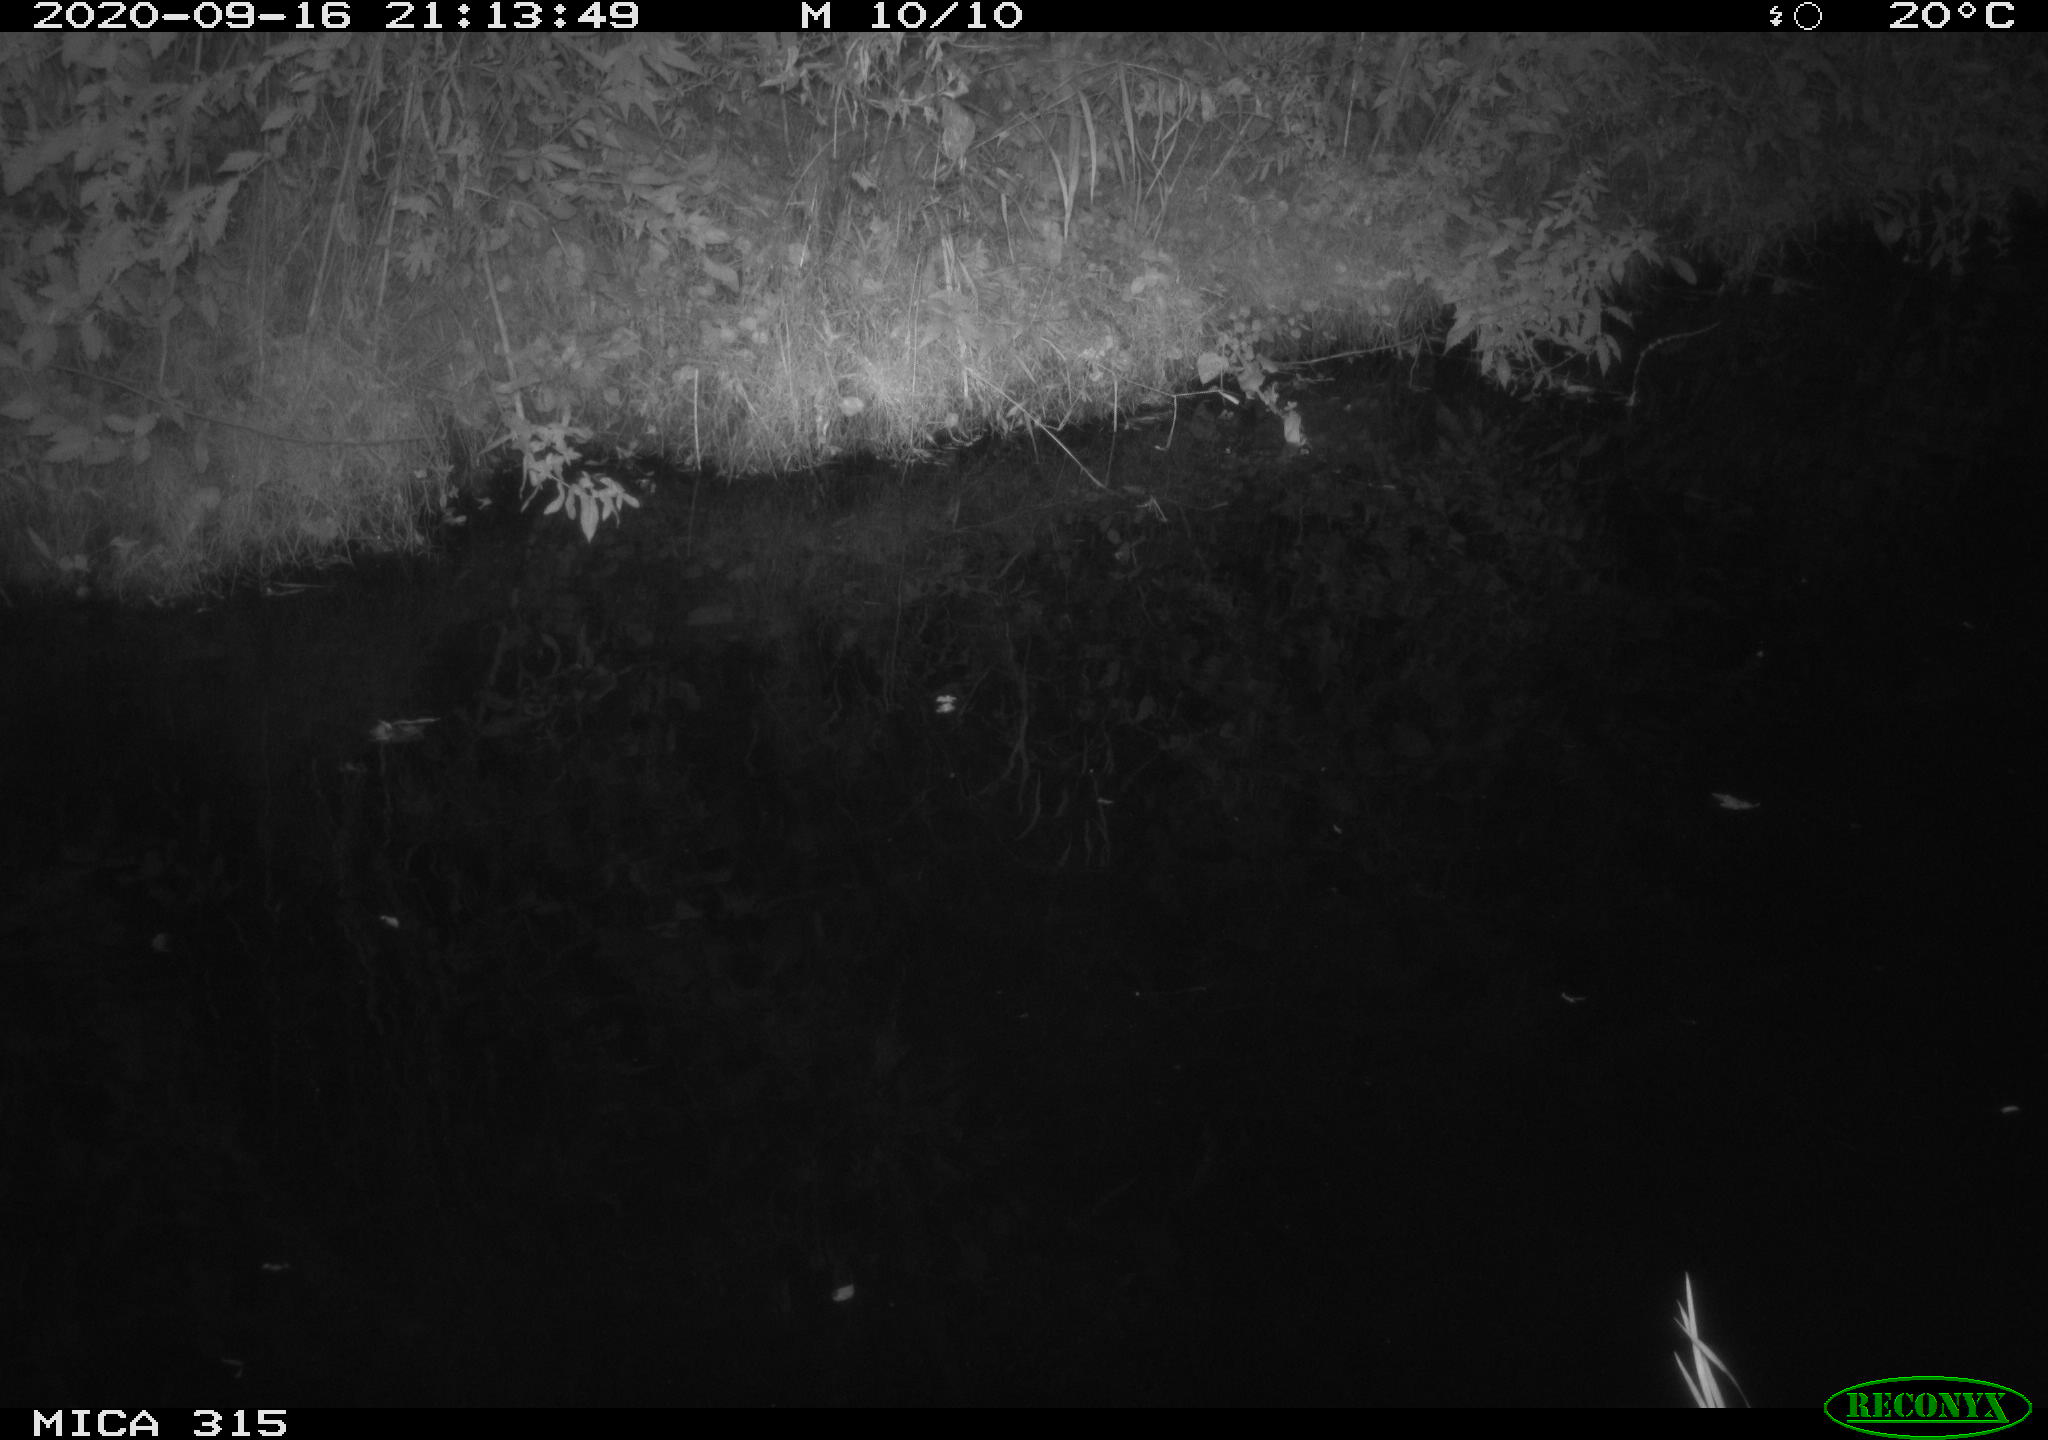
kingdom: Animalia
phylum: Chordata
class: Aves
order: Anseriformes
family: Anatidae
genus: Anas
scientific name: Anas platyrhynchos
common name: Mallard
